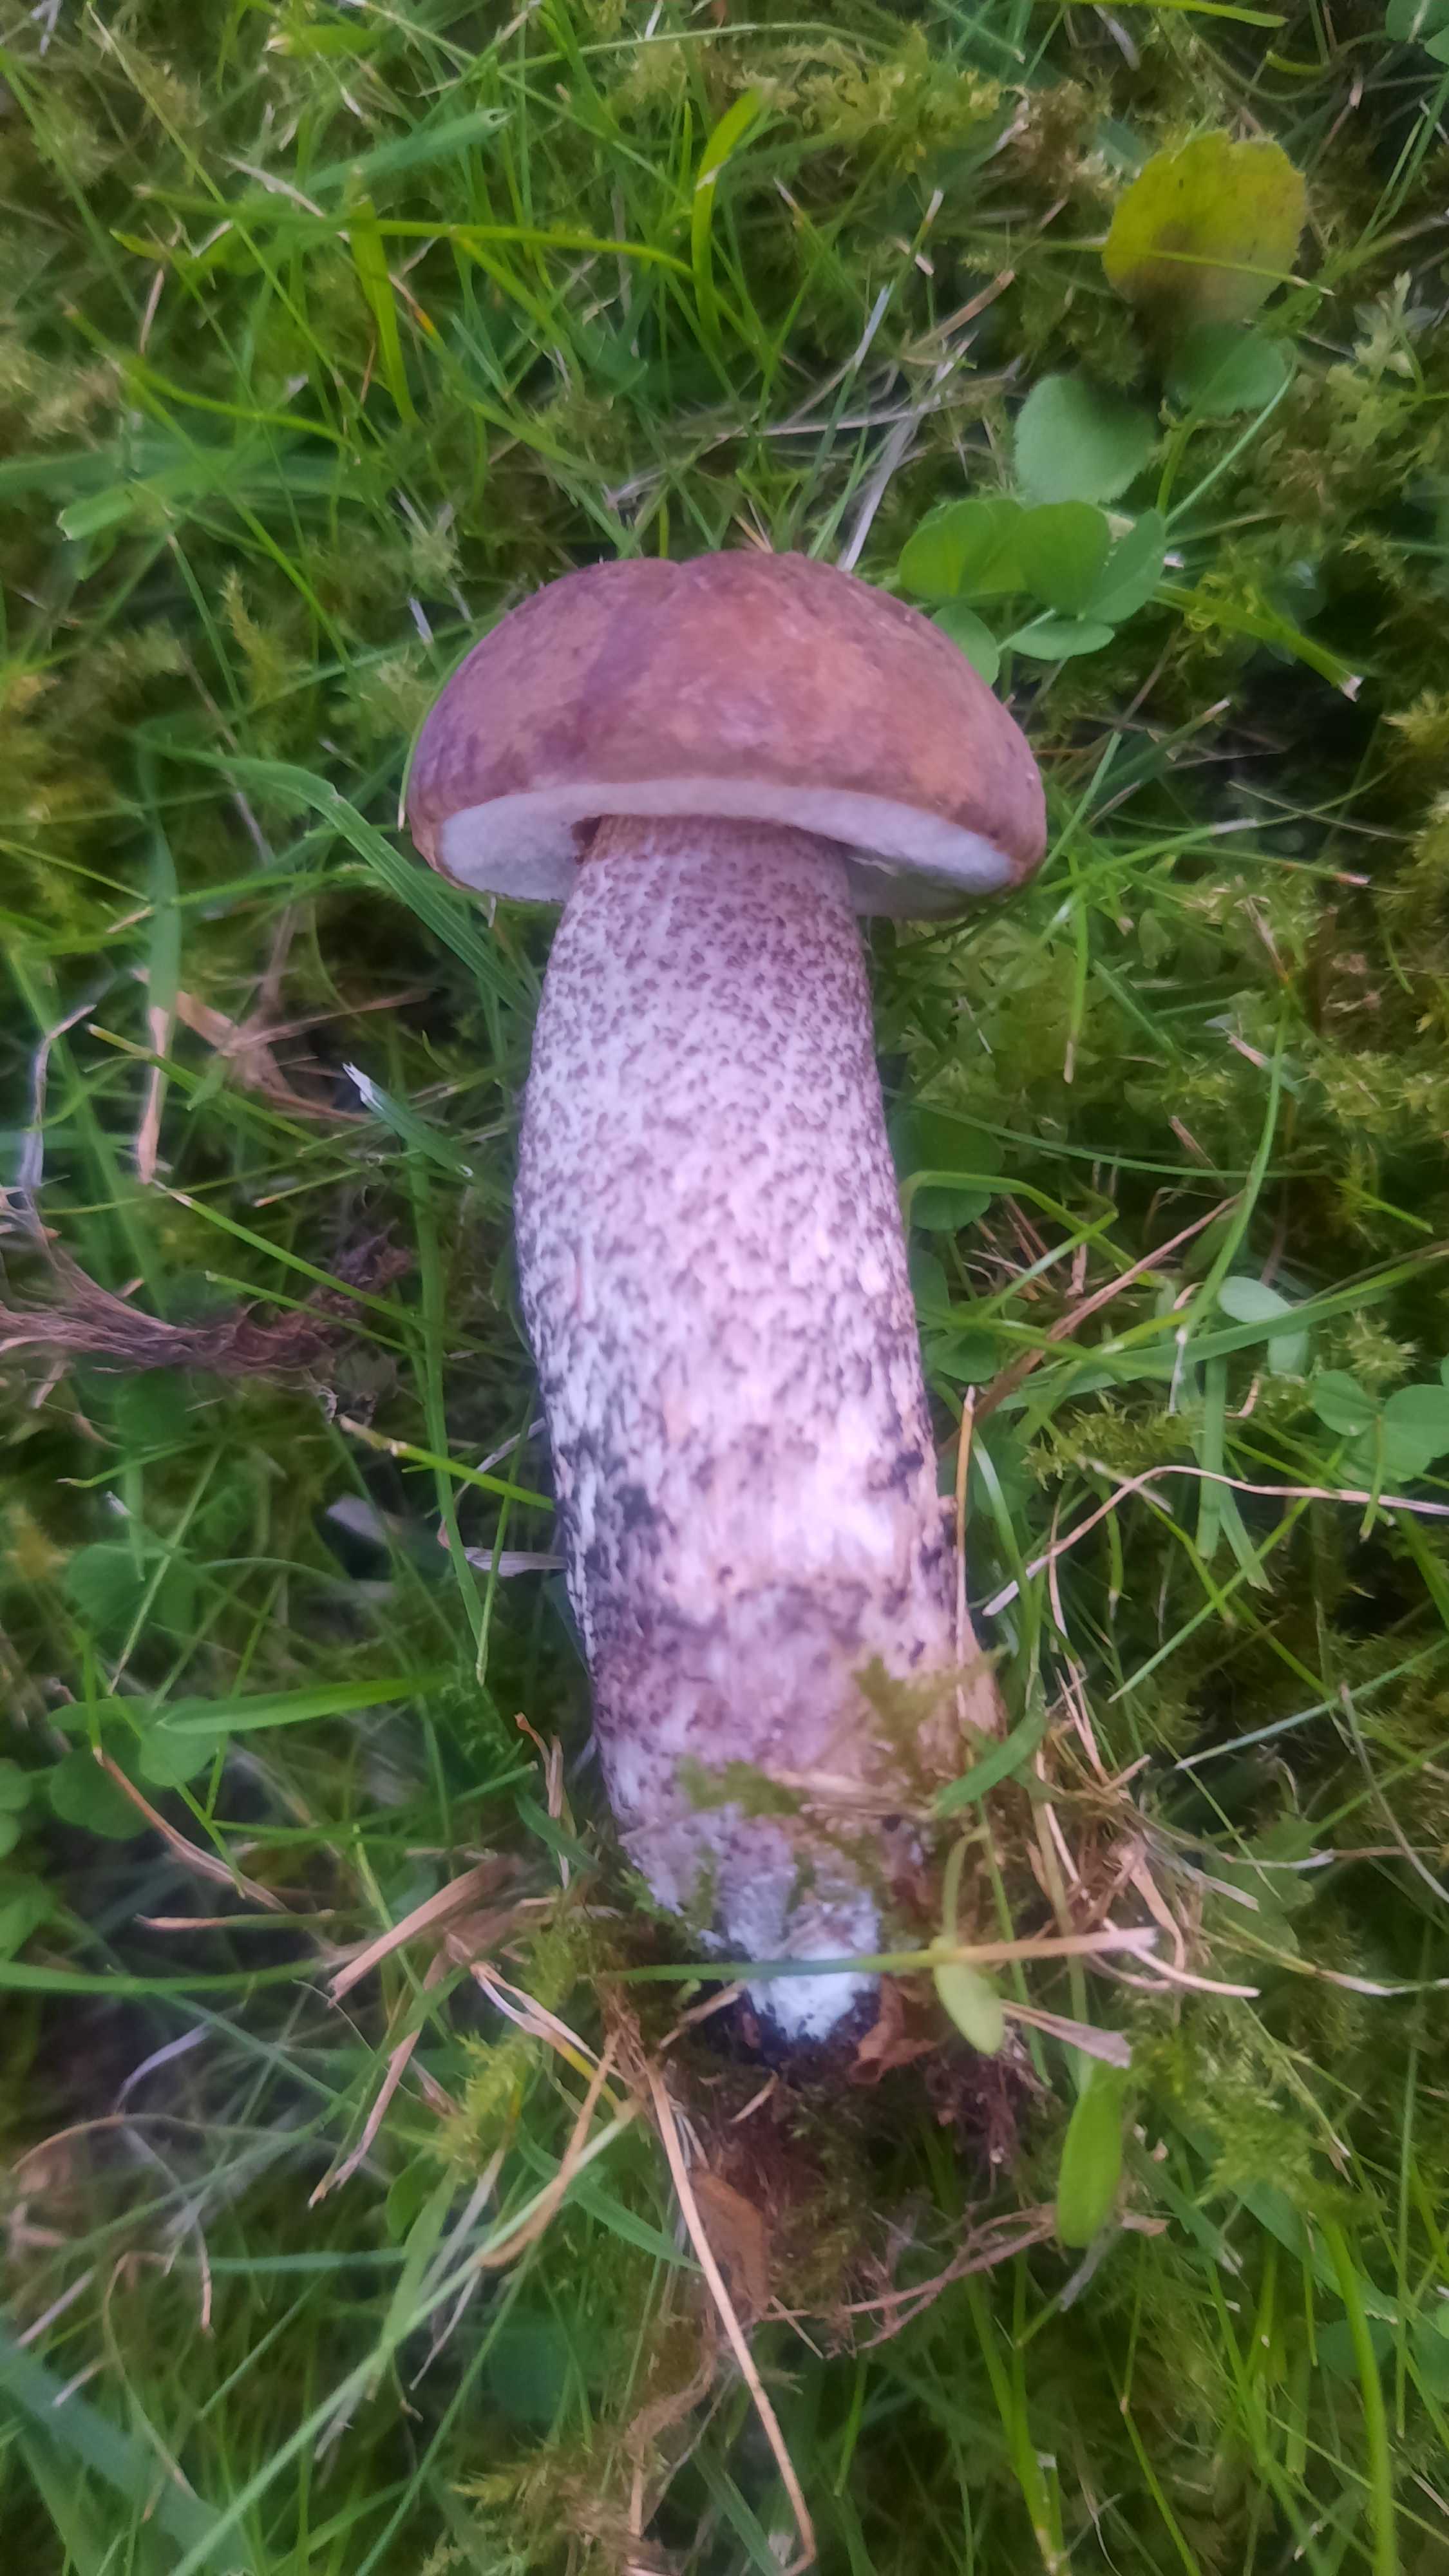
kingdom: Fungi
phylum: Basidiomycota
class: Agaricomycetes
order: Boletales
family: Boletaceae
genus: Leccinum
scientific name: Leccinum scabrum
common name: brun skælrørhat
